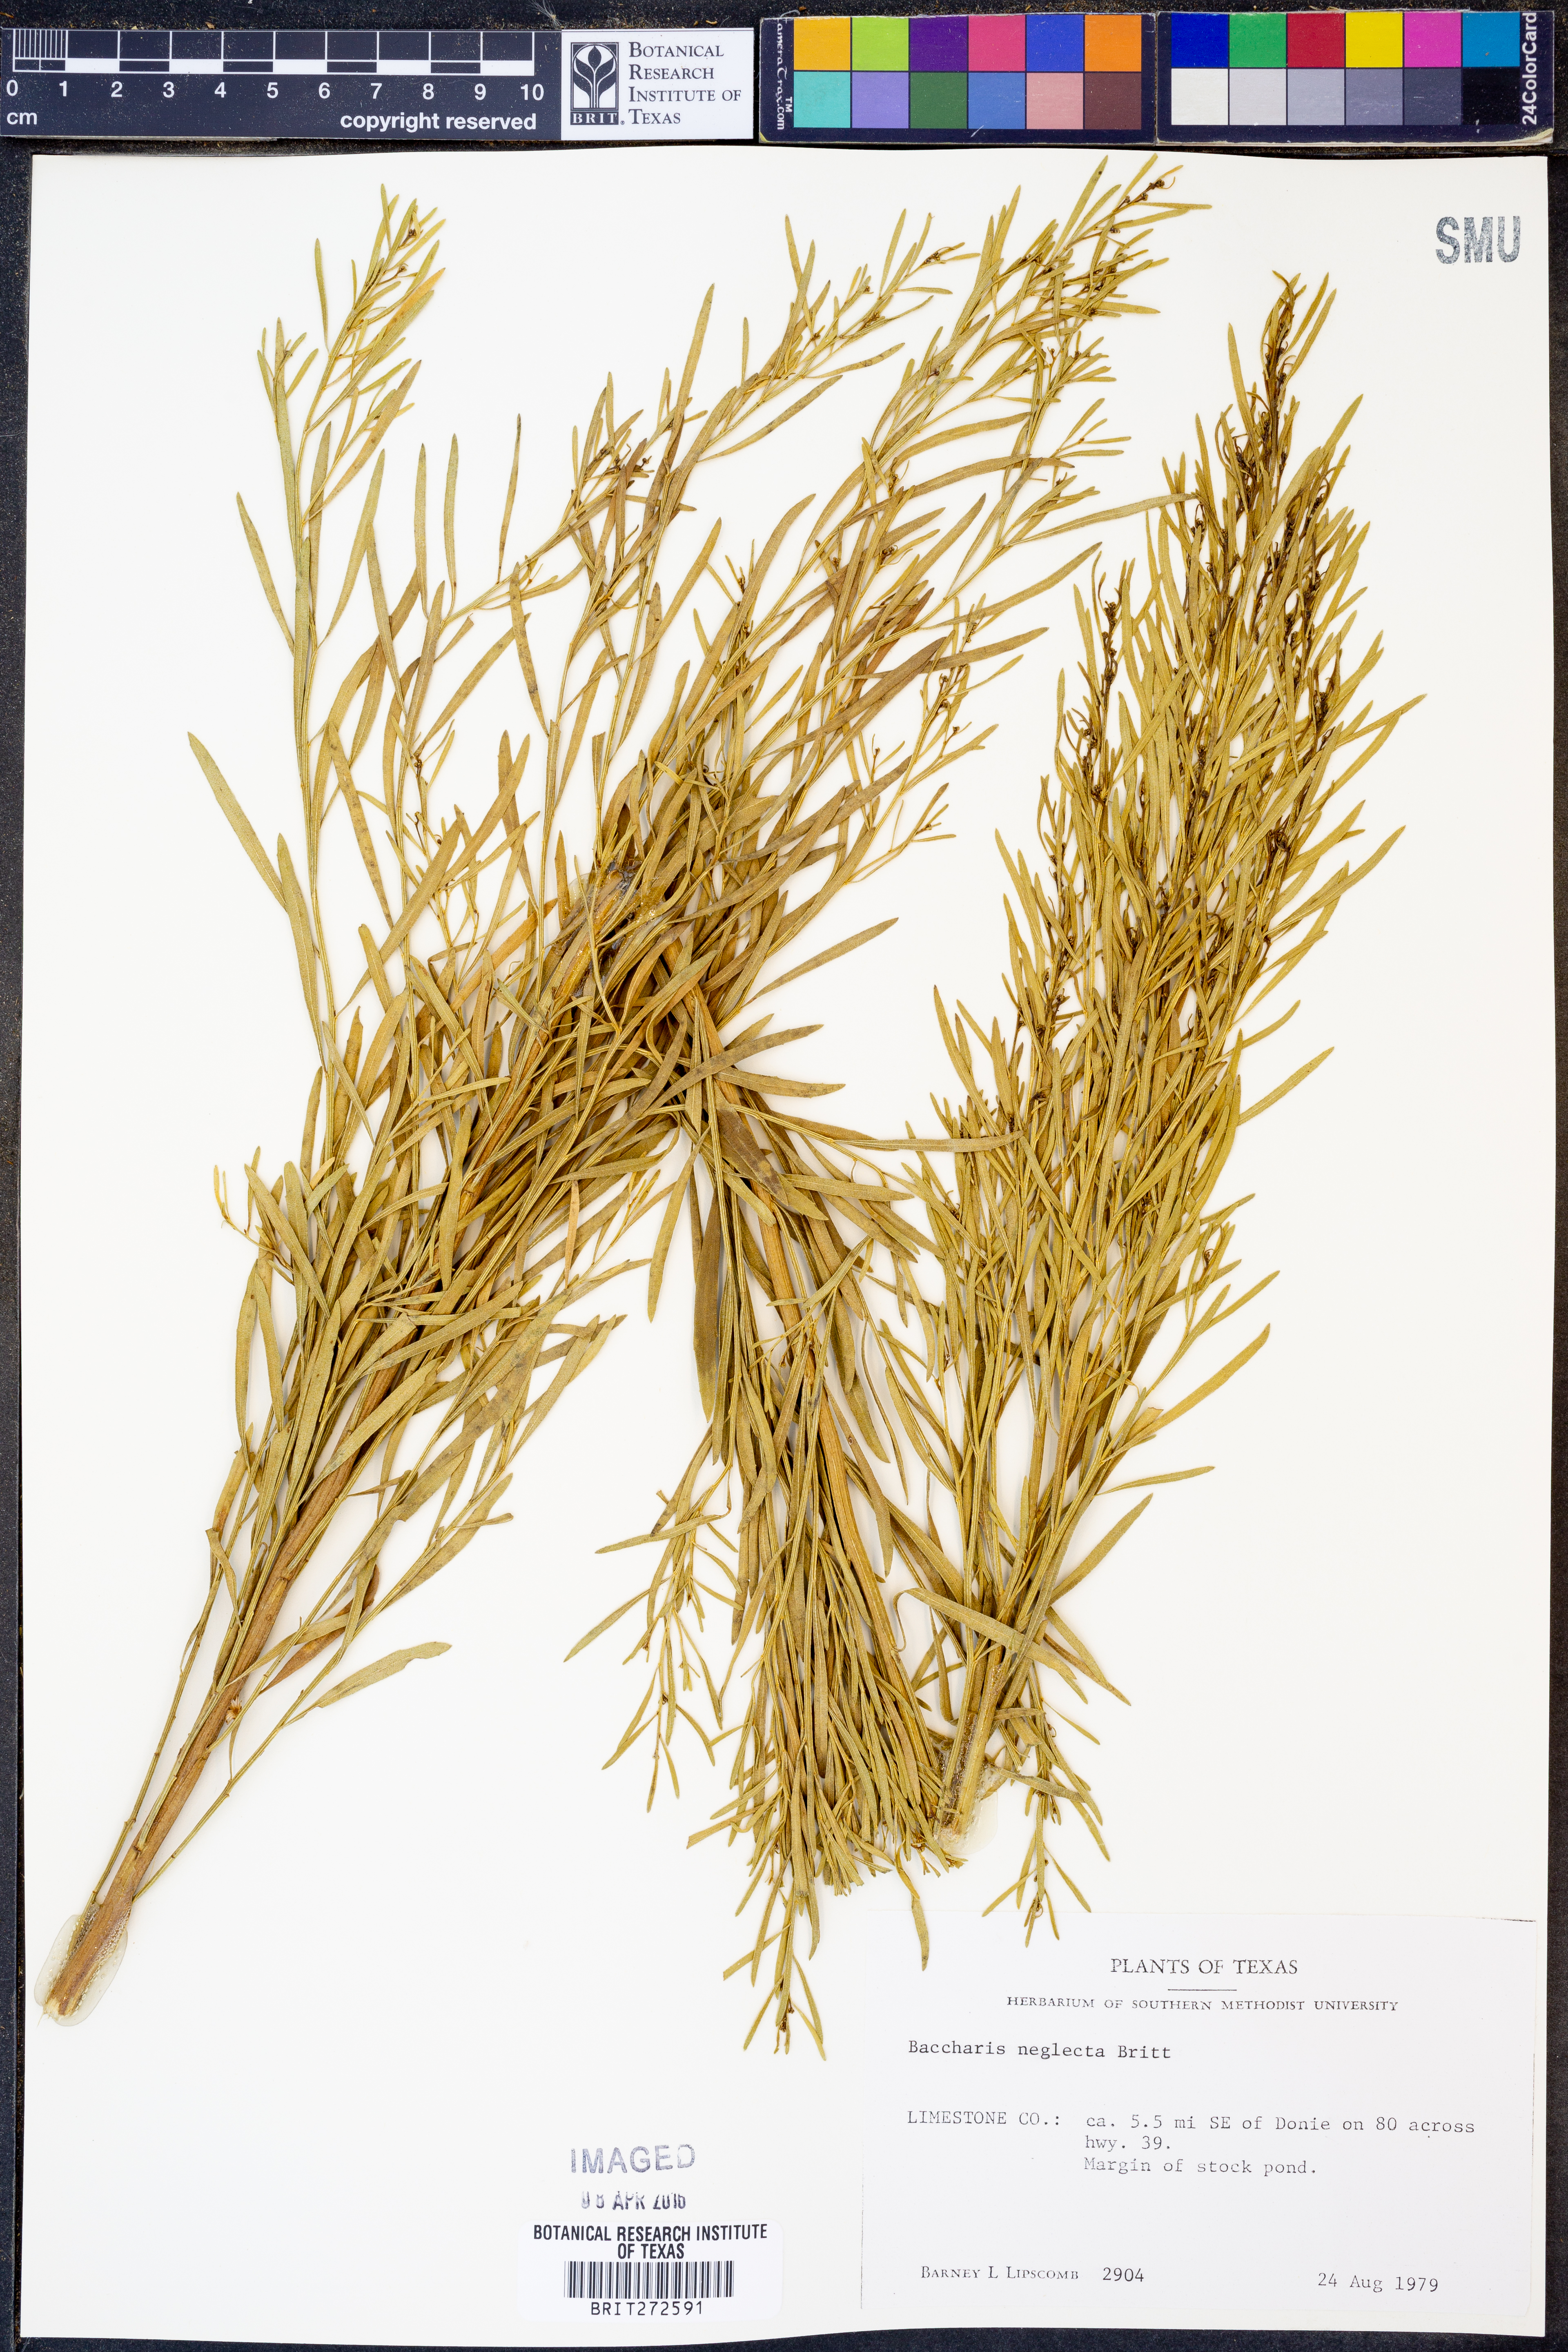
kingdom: Plantae
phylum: Tracheophyta
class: Magnoliopsida
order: Asterales
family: Asteraceae
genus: Baccharis
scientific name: Baccharis neglecta
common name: Roosevelt-weed
